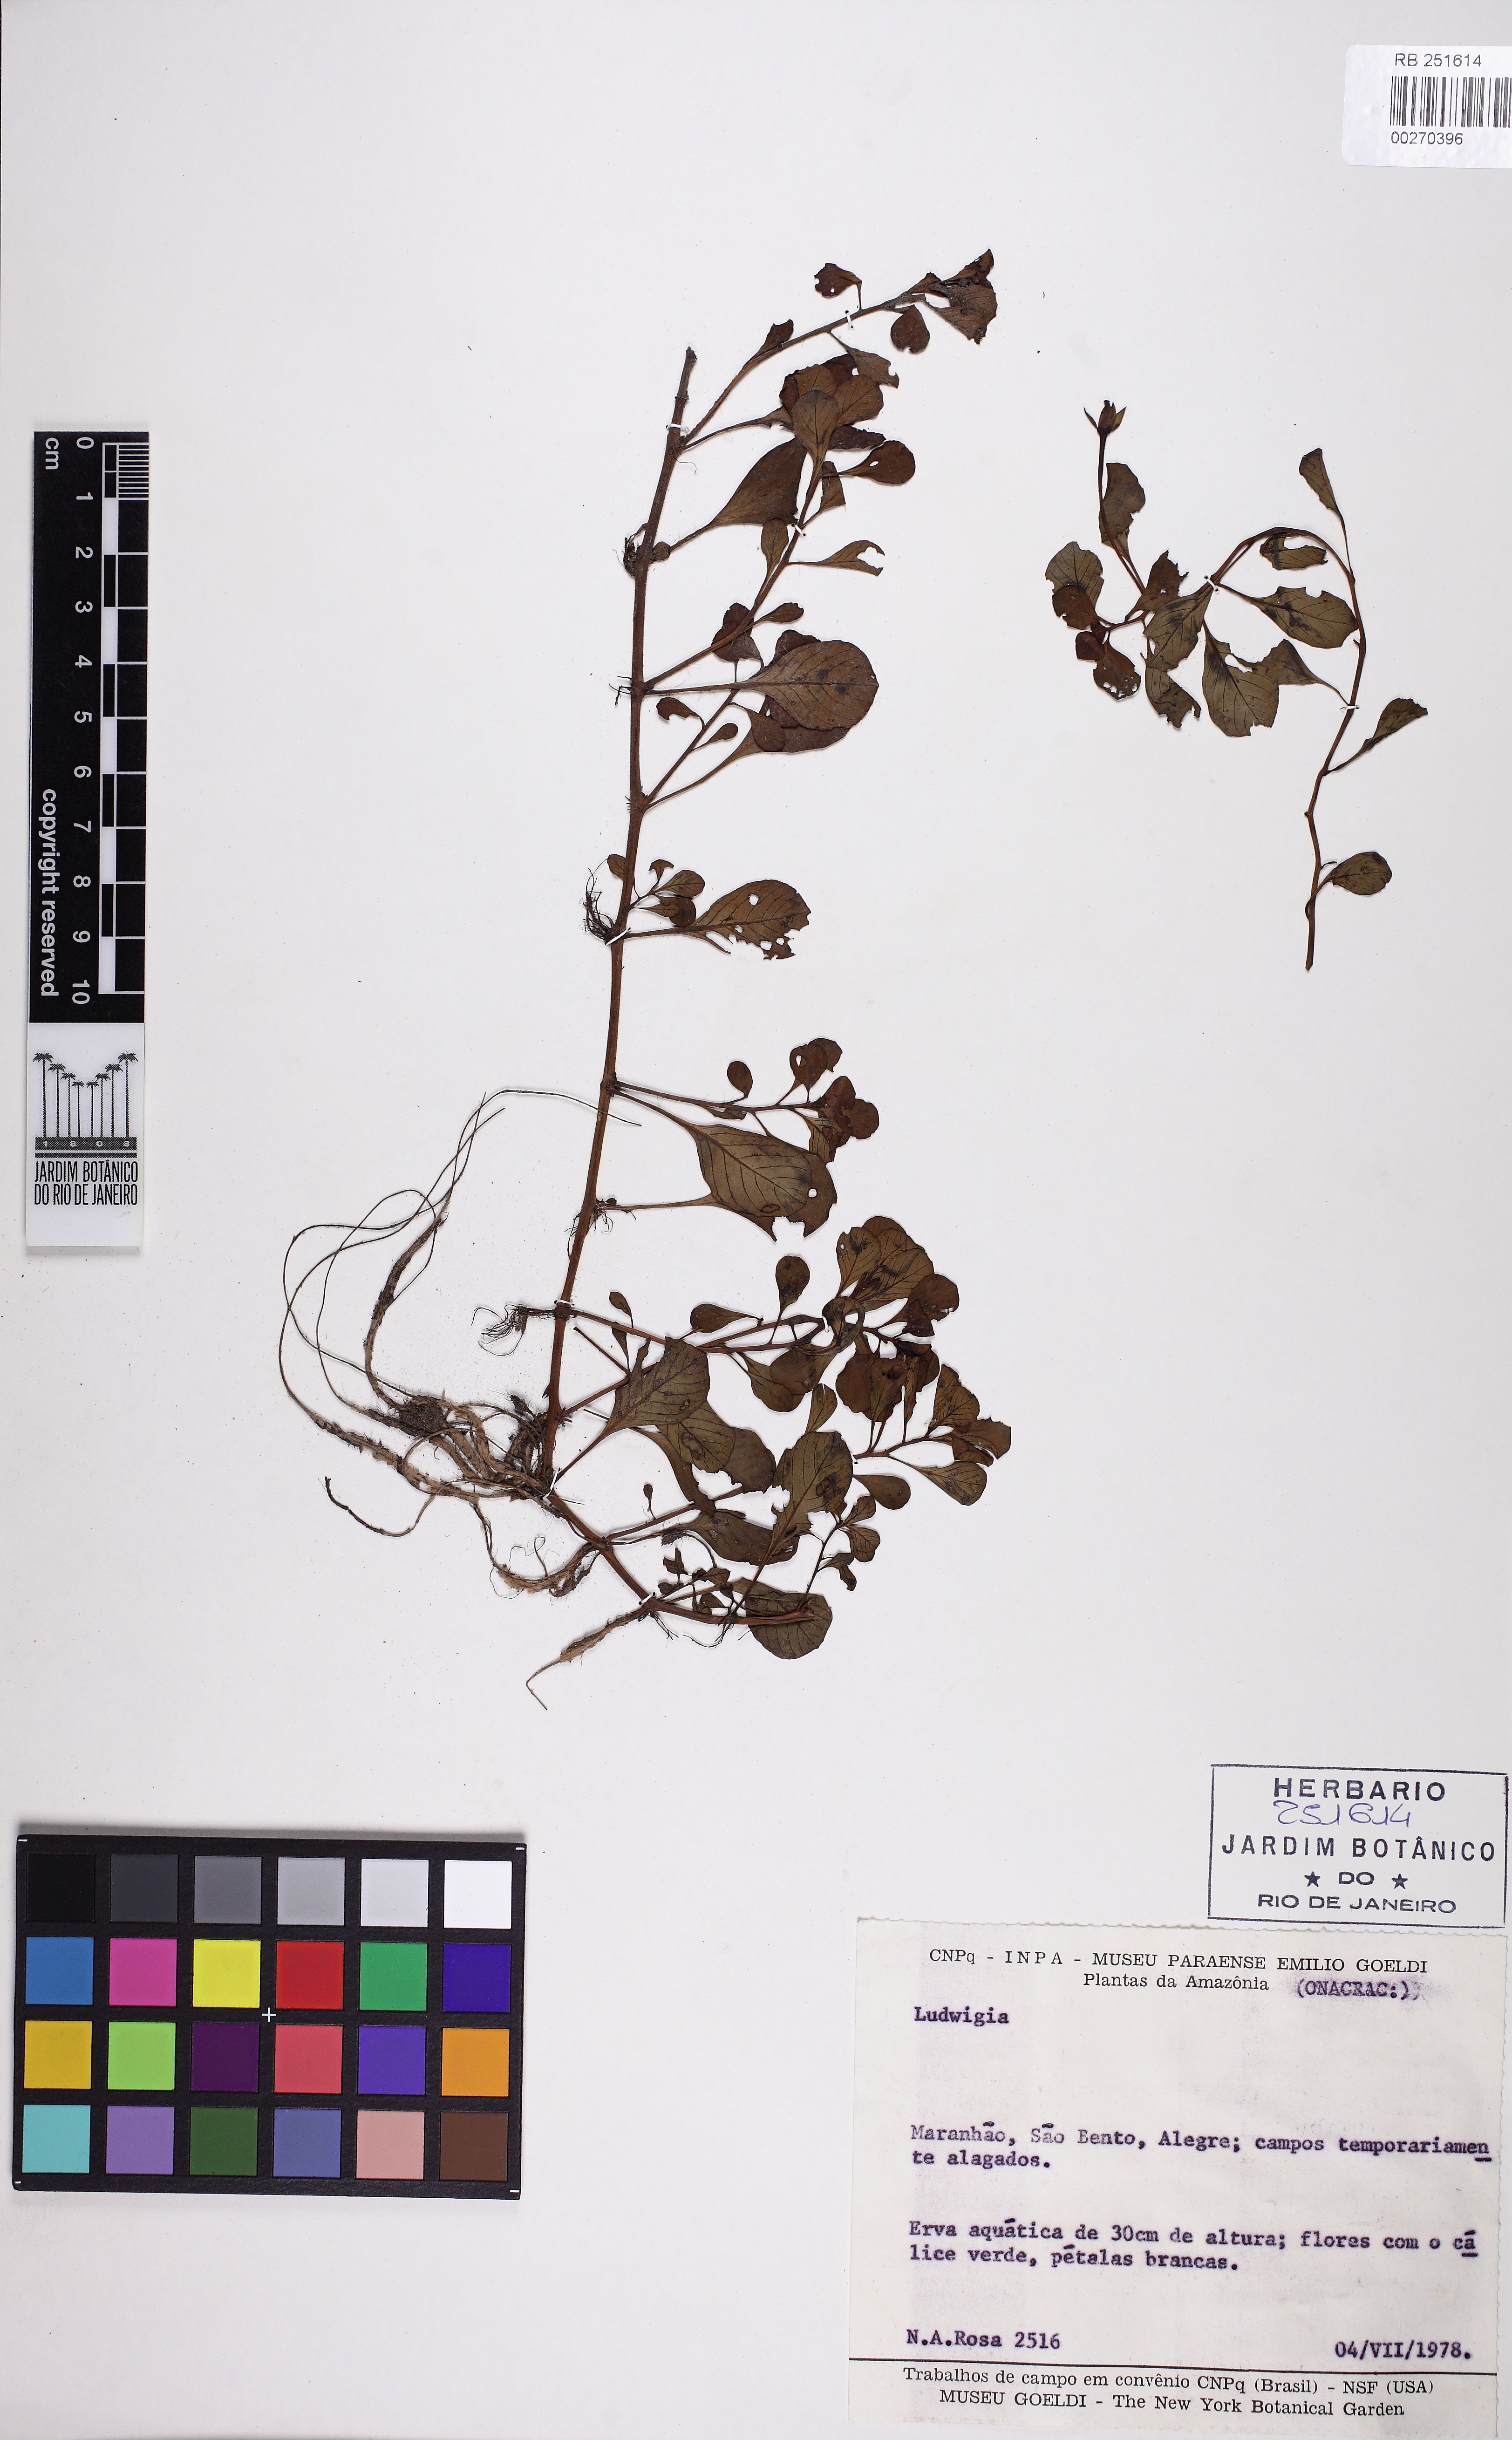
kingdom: Plantae
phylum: Tracheophyta
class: Magnoliopsida
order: Myrtales
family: Onagraceae
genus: Ludwigia
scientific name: Ludwigia
